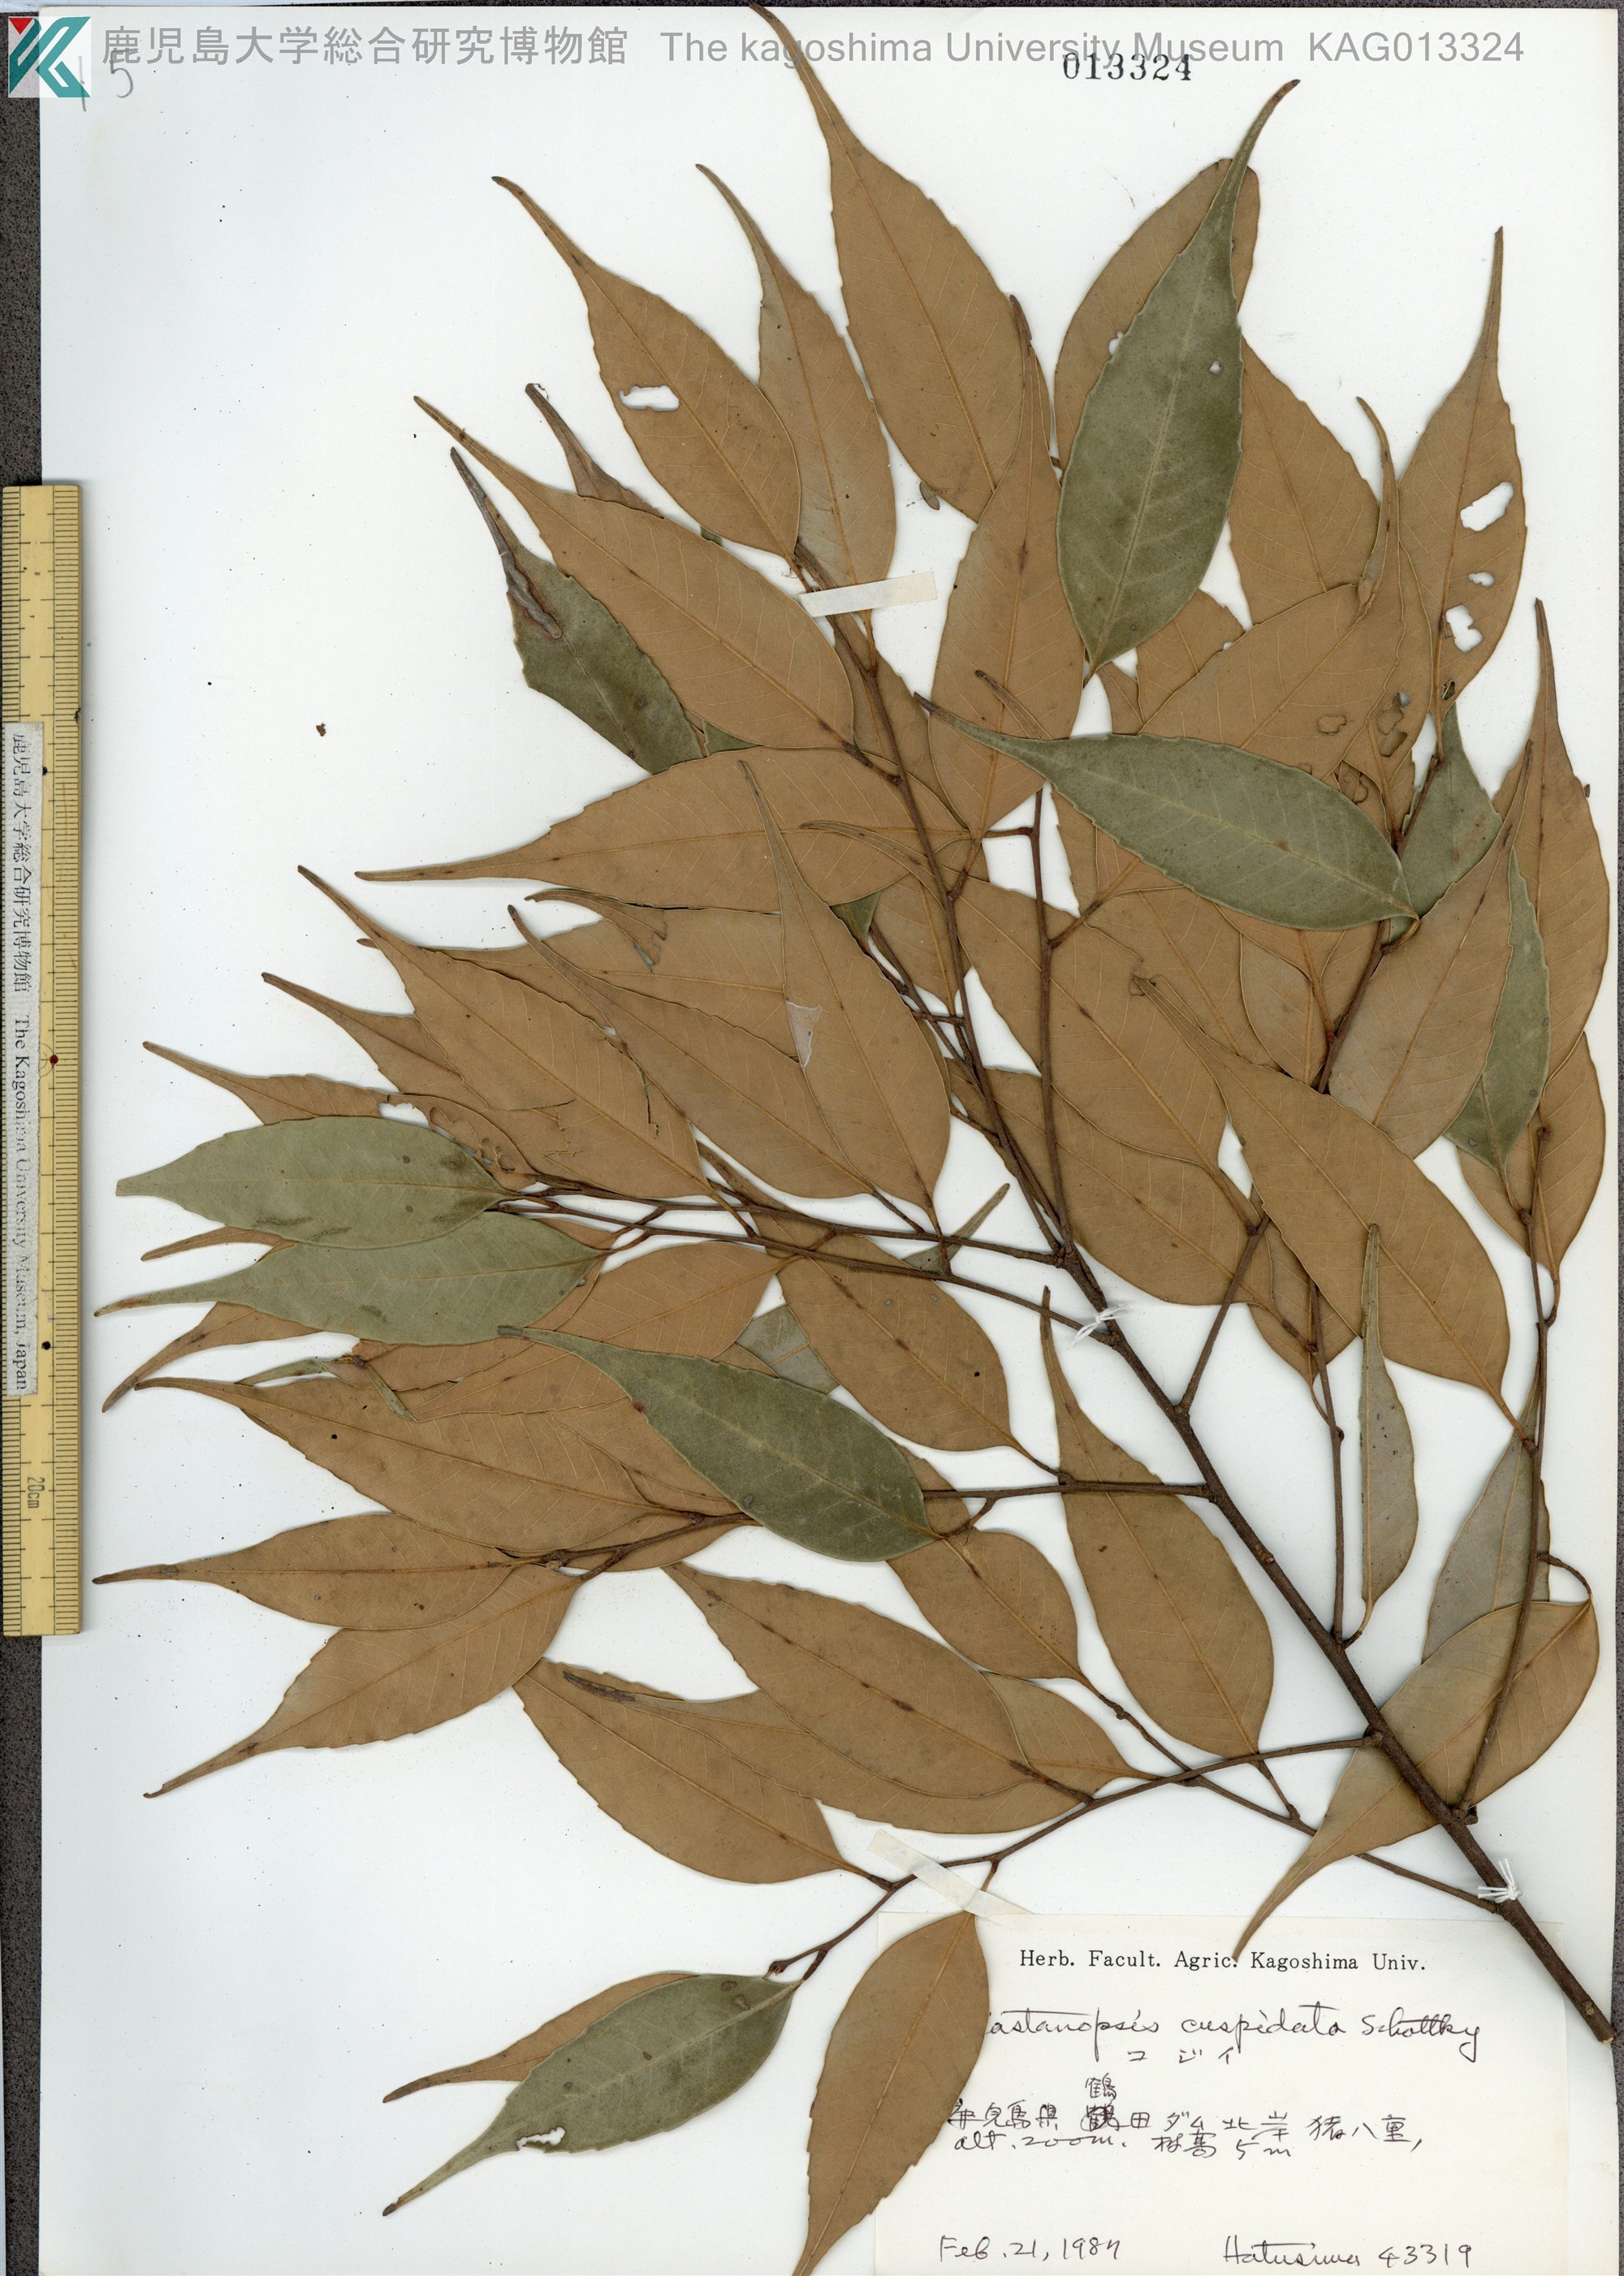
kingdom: Plantae
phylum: Tracheophyta
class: Magnoliopsida
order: Fagales
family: Fagaceae
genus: Castanopsis
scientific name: Castanopsis cuspidata
